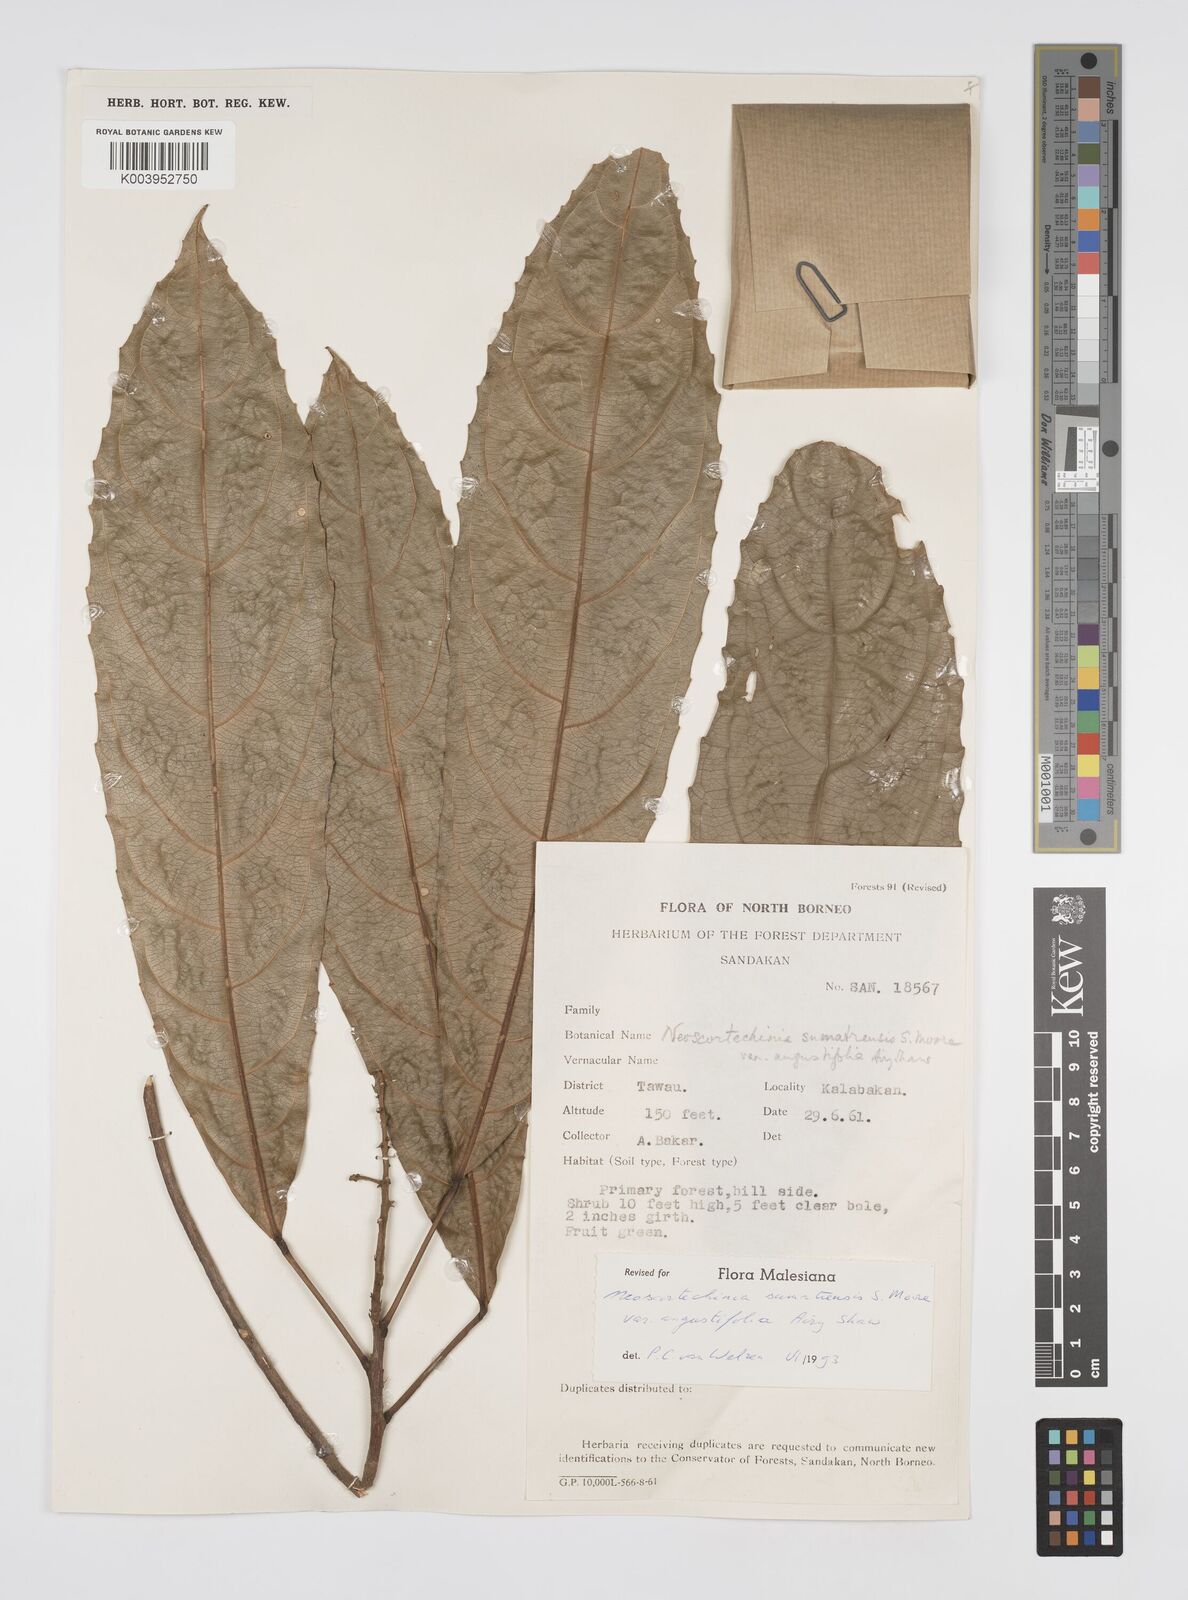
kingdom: Plantae
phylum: Tracheophyta
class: Magnoliopsida
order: Malpighiales
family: Euphorbiaceae
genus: Neoscortechinia
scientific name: Neoscortechinia angustifolia
